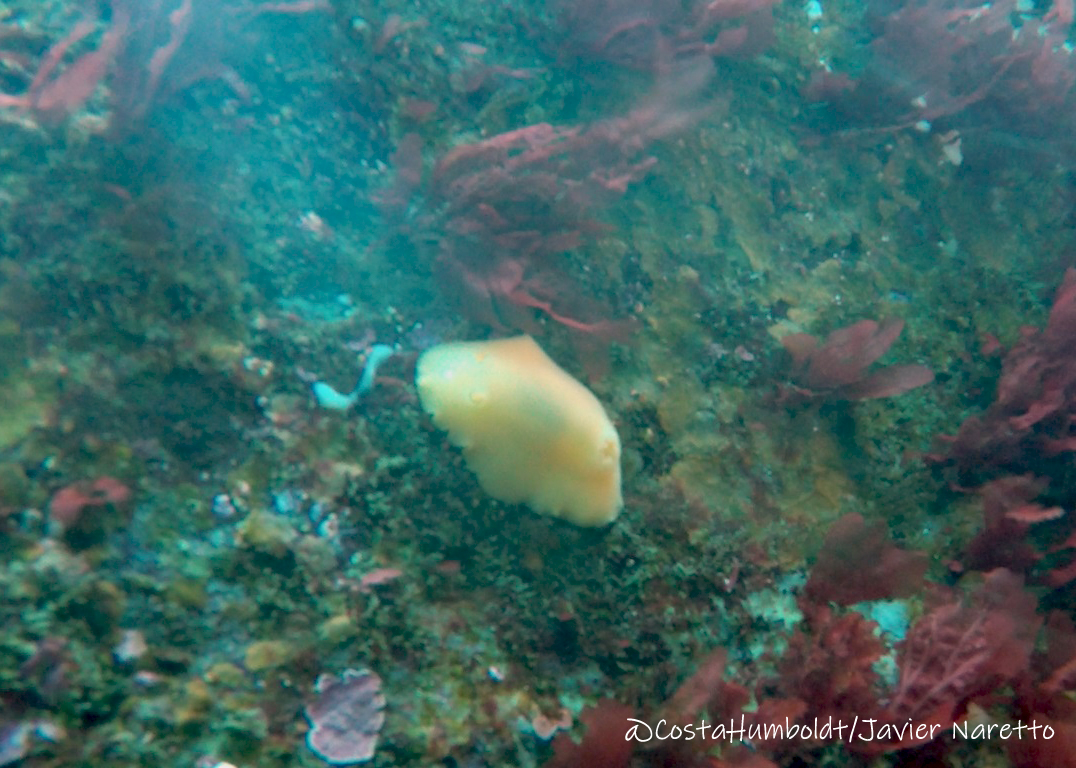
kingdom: Animalia
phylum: Mollusca
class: Gastropoda
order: Nudibranchia
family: Discodorididae
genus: Gargamella
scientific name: Gargamella
